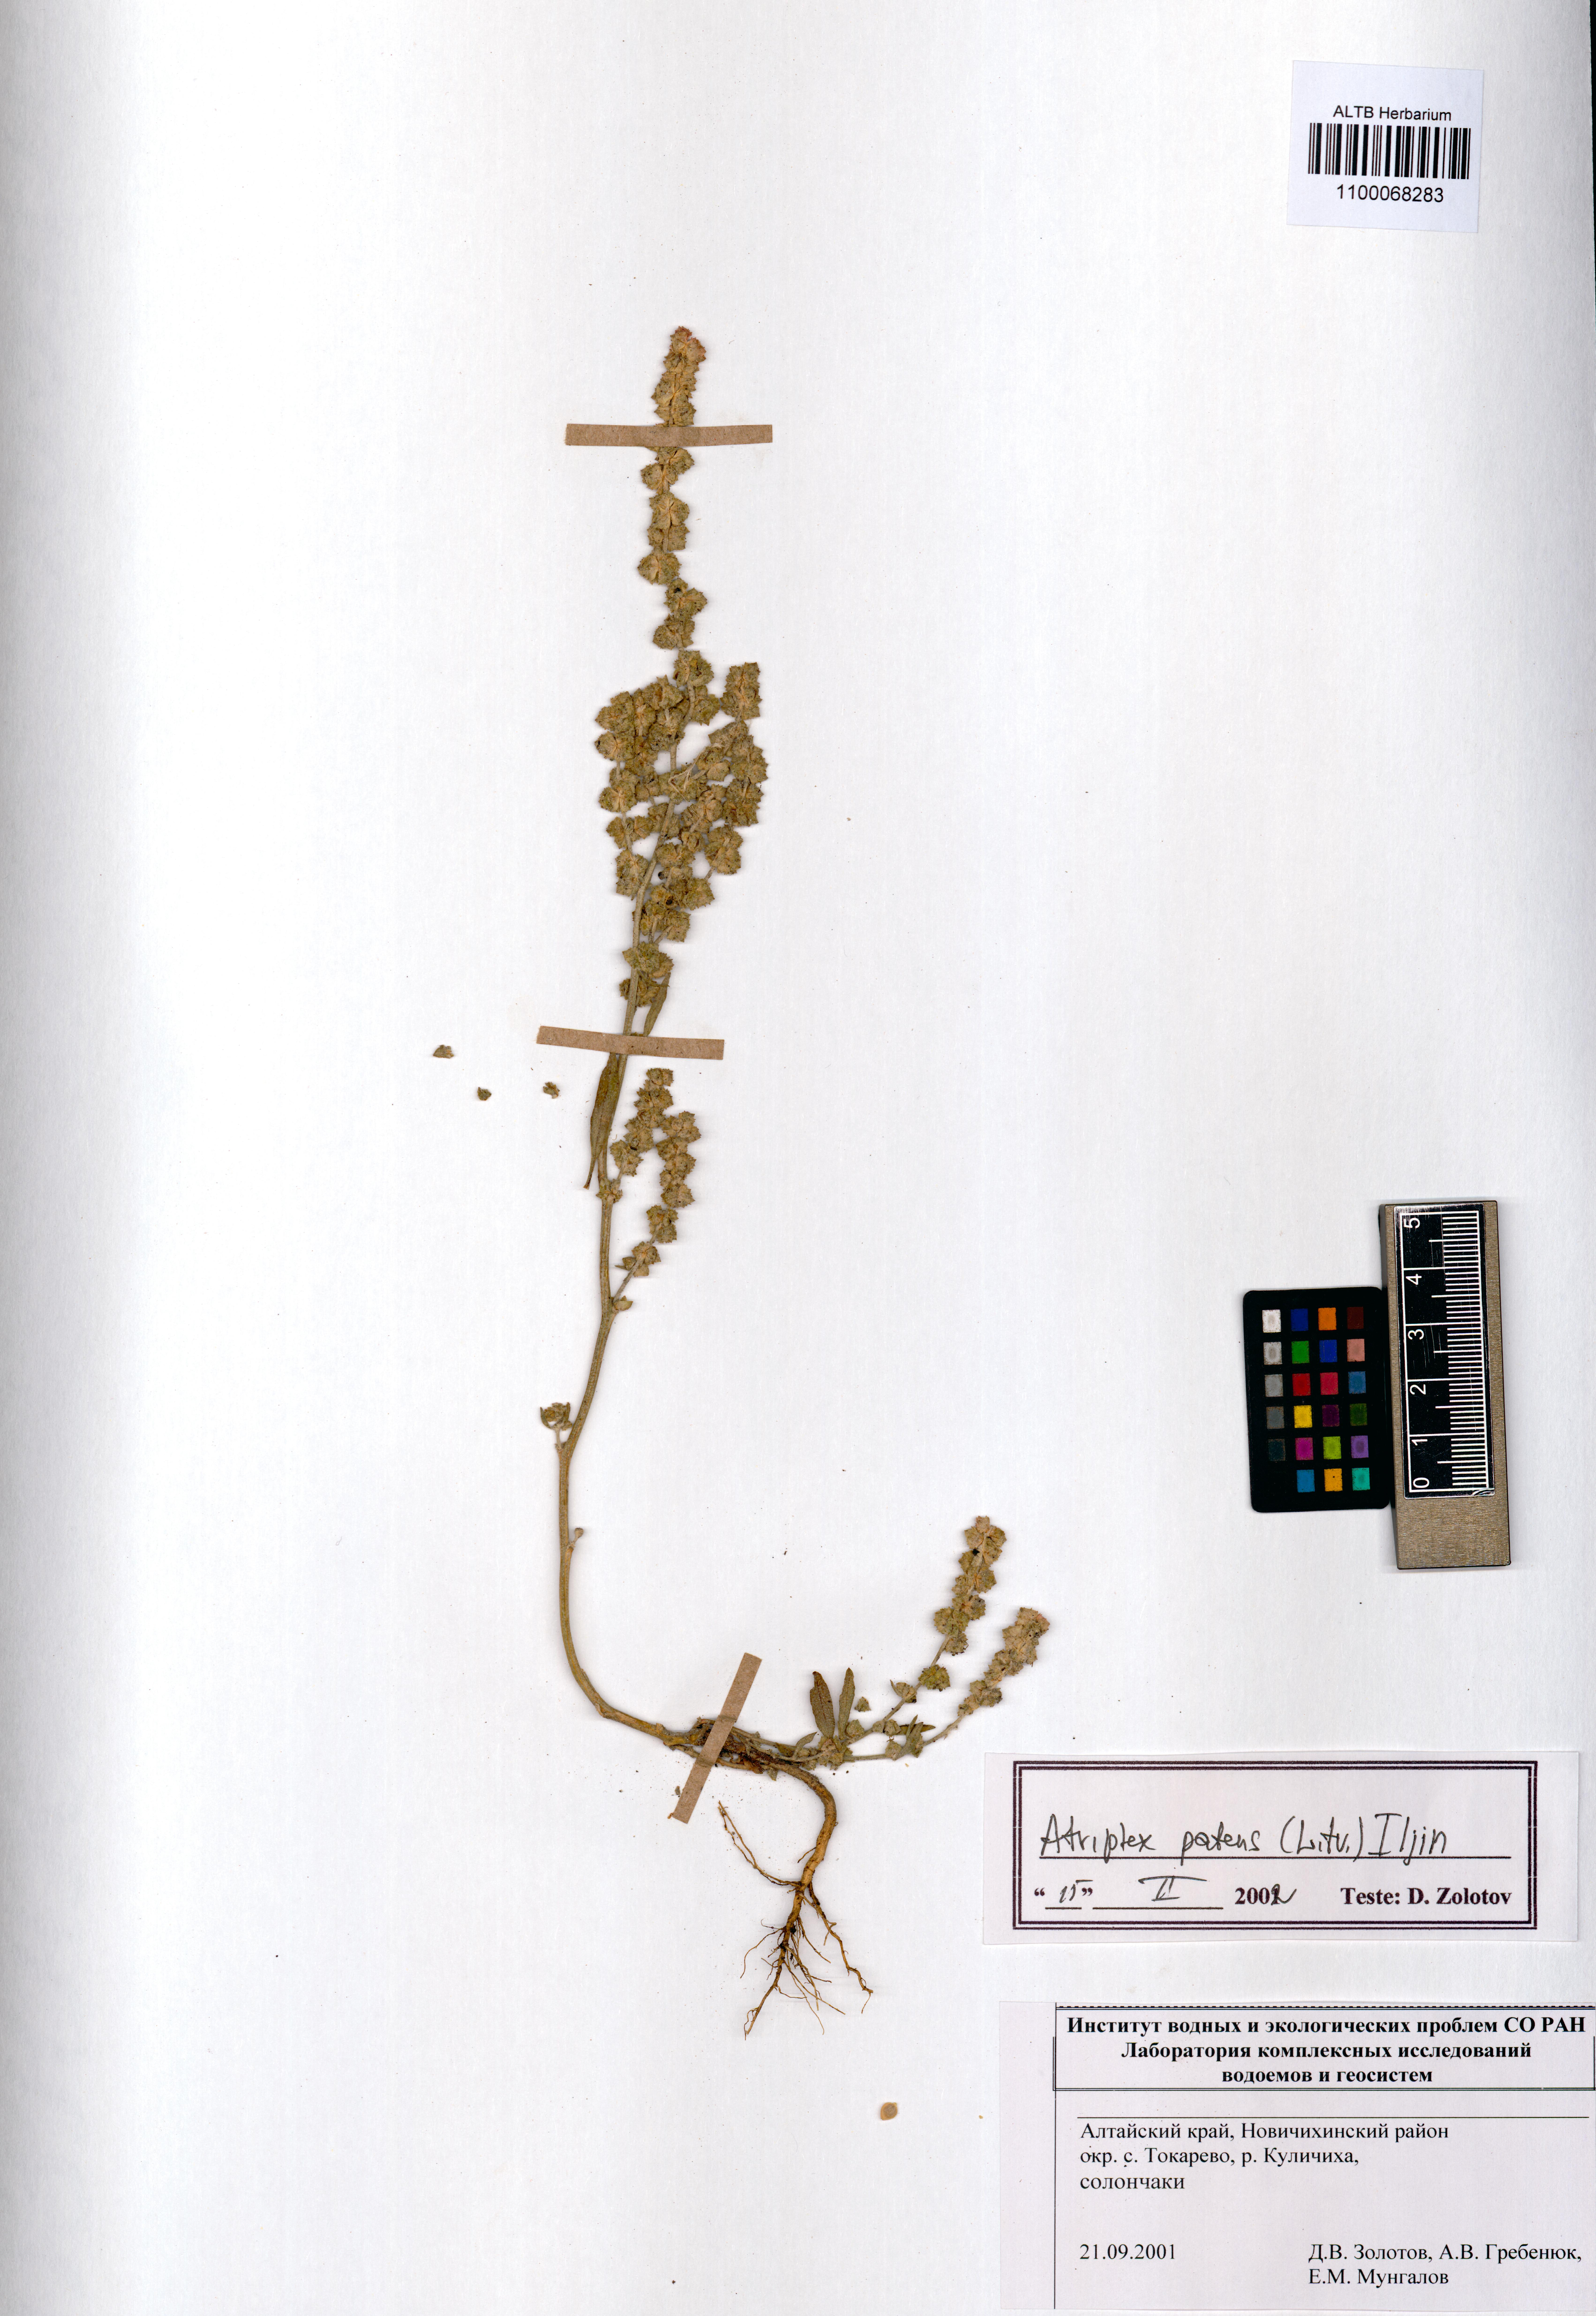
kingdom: Plantae
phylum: Tracheophyta
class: Magnoliopsida
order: Caryophyllales
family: Amaranthaceae
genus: Atriplex
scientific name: Atriplex patens
